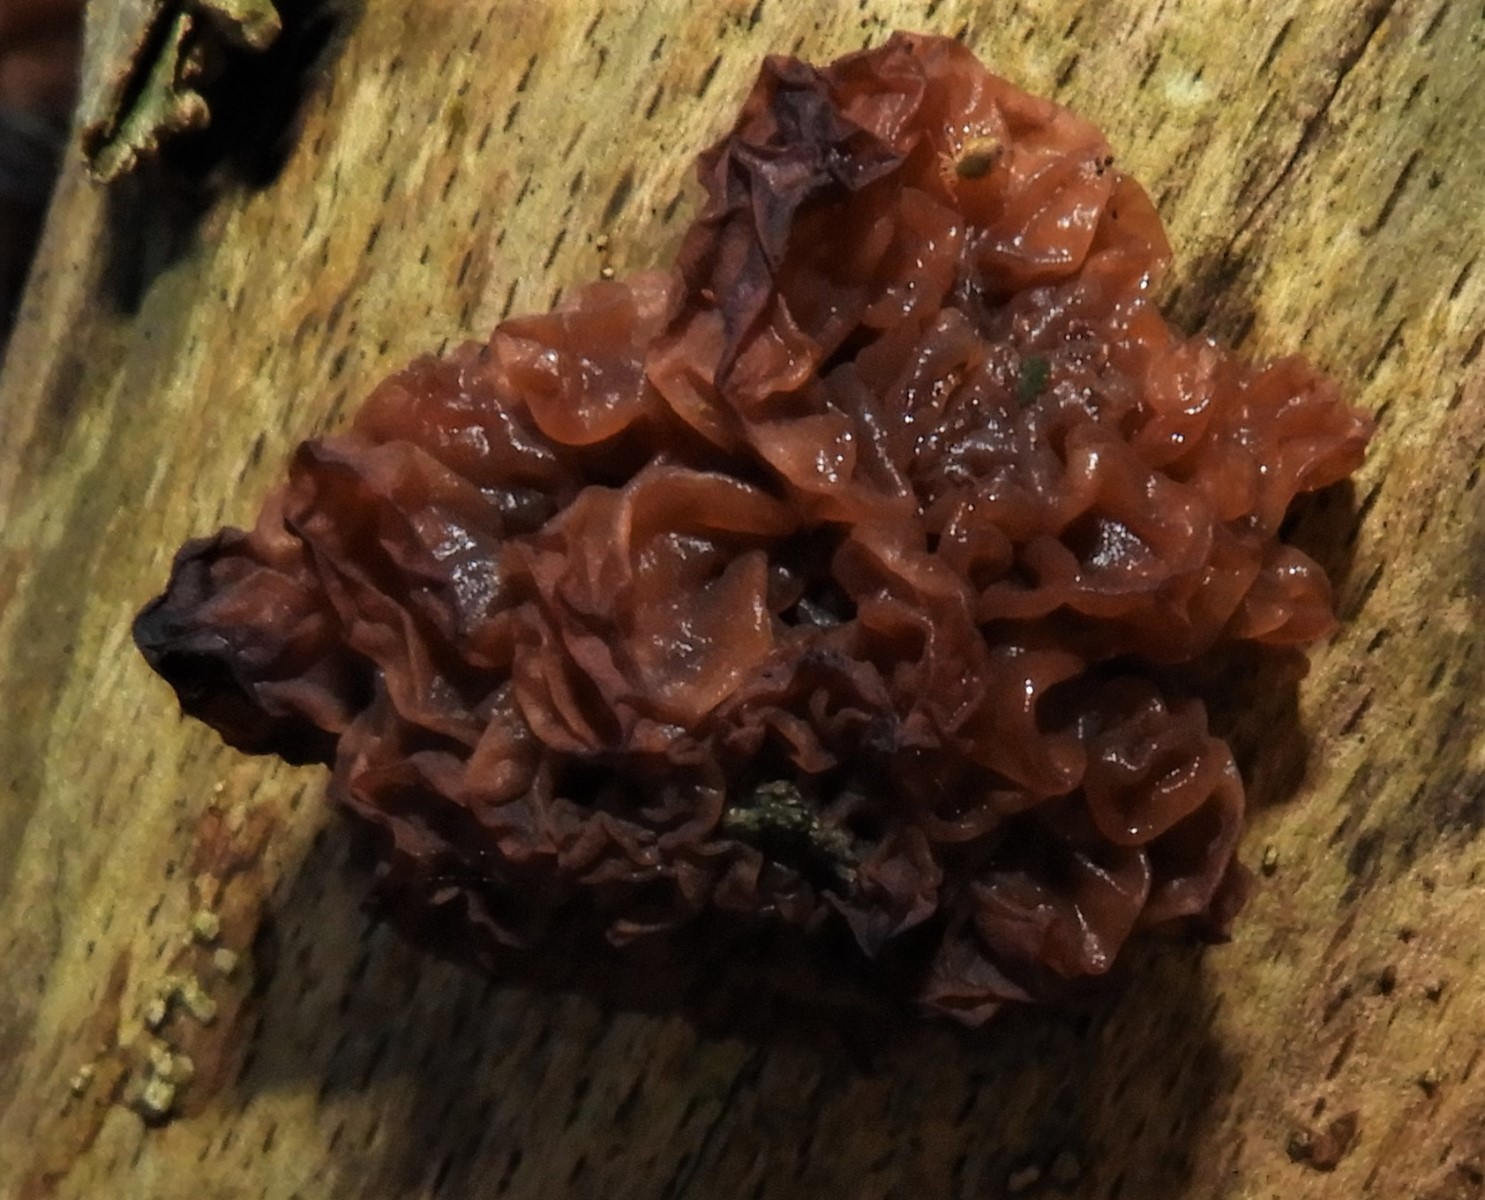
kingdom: Fungi
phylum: Basidiomycota
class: Tremellomycetes
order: Tremellales
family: Tremellaceae
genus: Phaeotremella
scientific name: Phaeotremella frondosa
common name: kæmpe-bævresvamp
